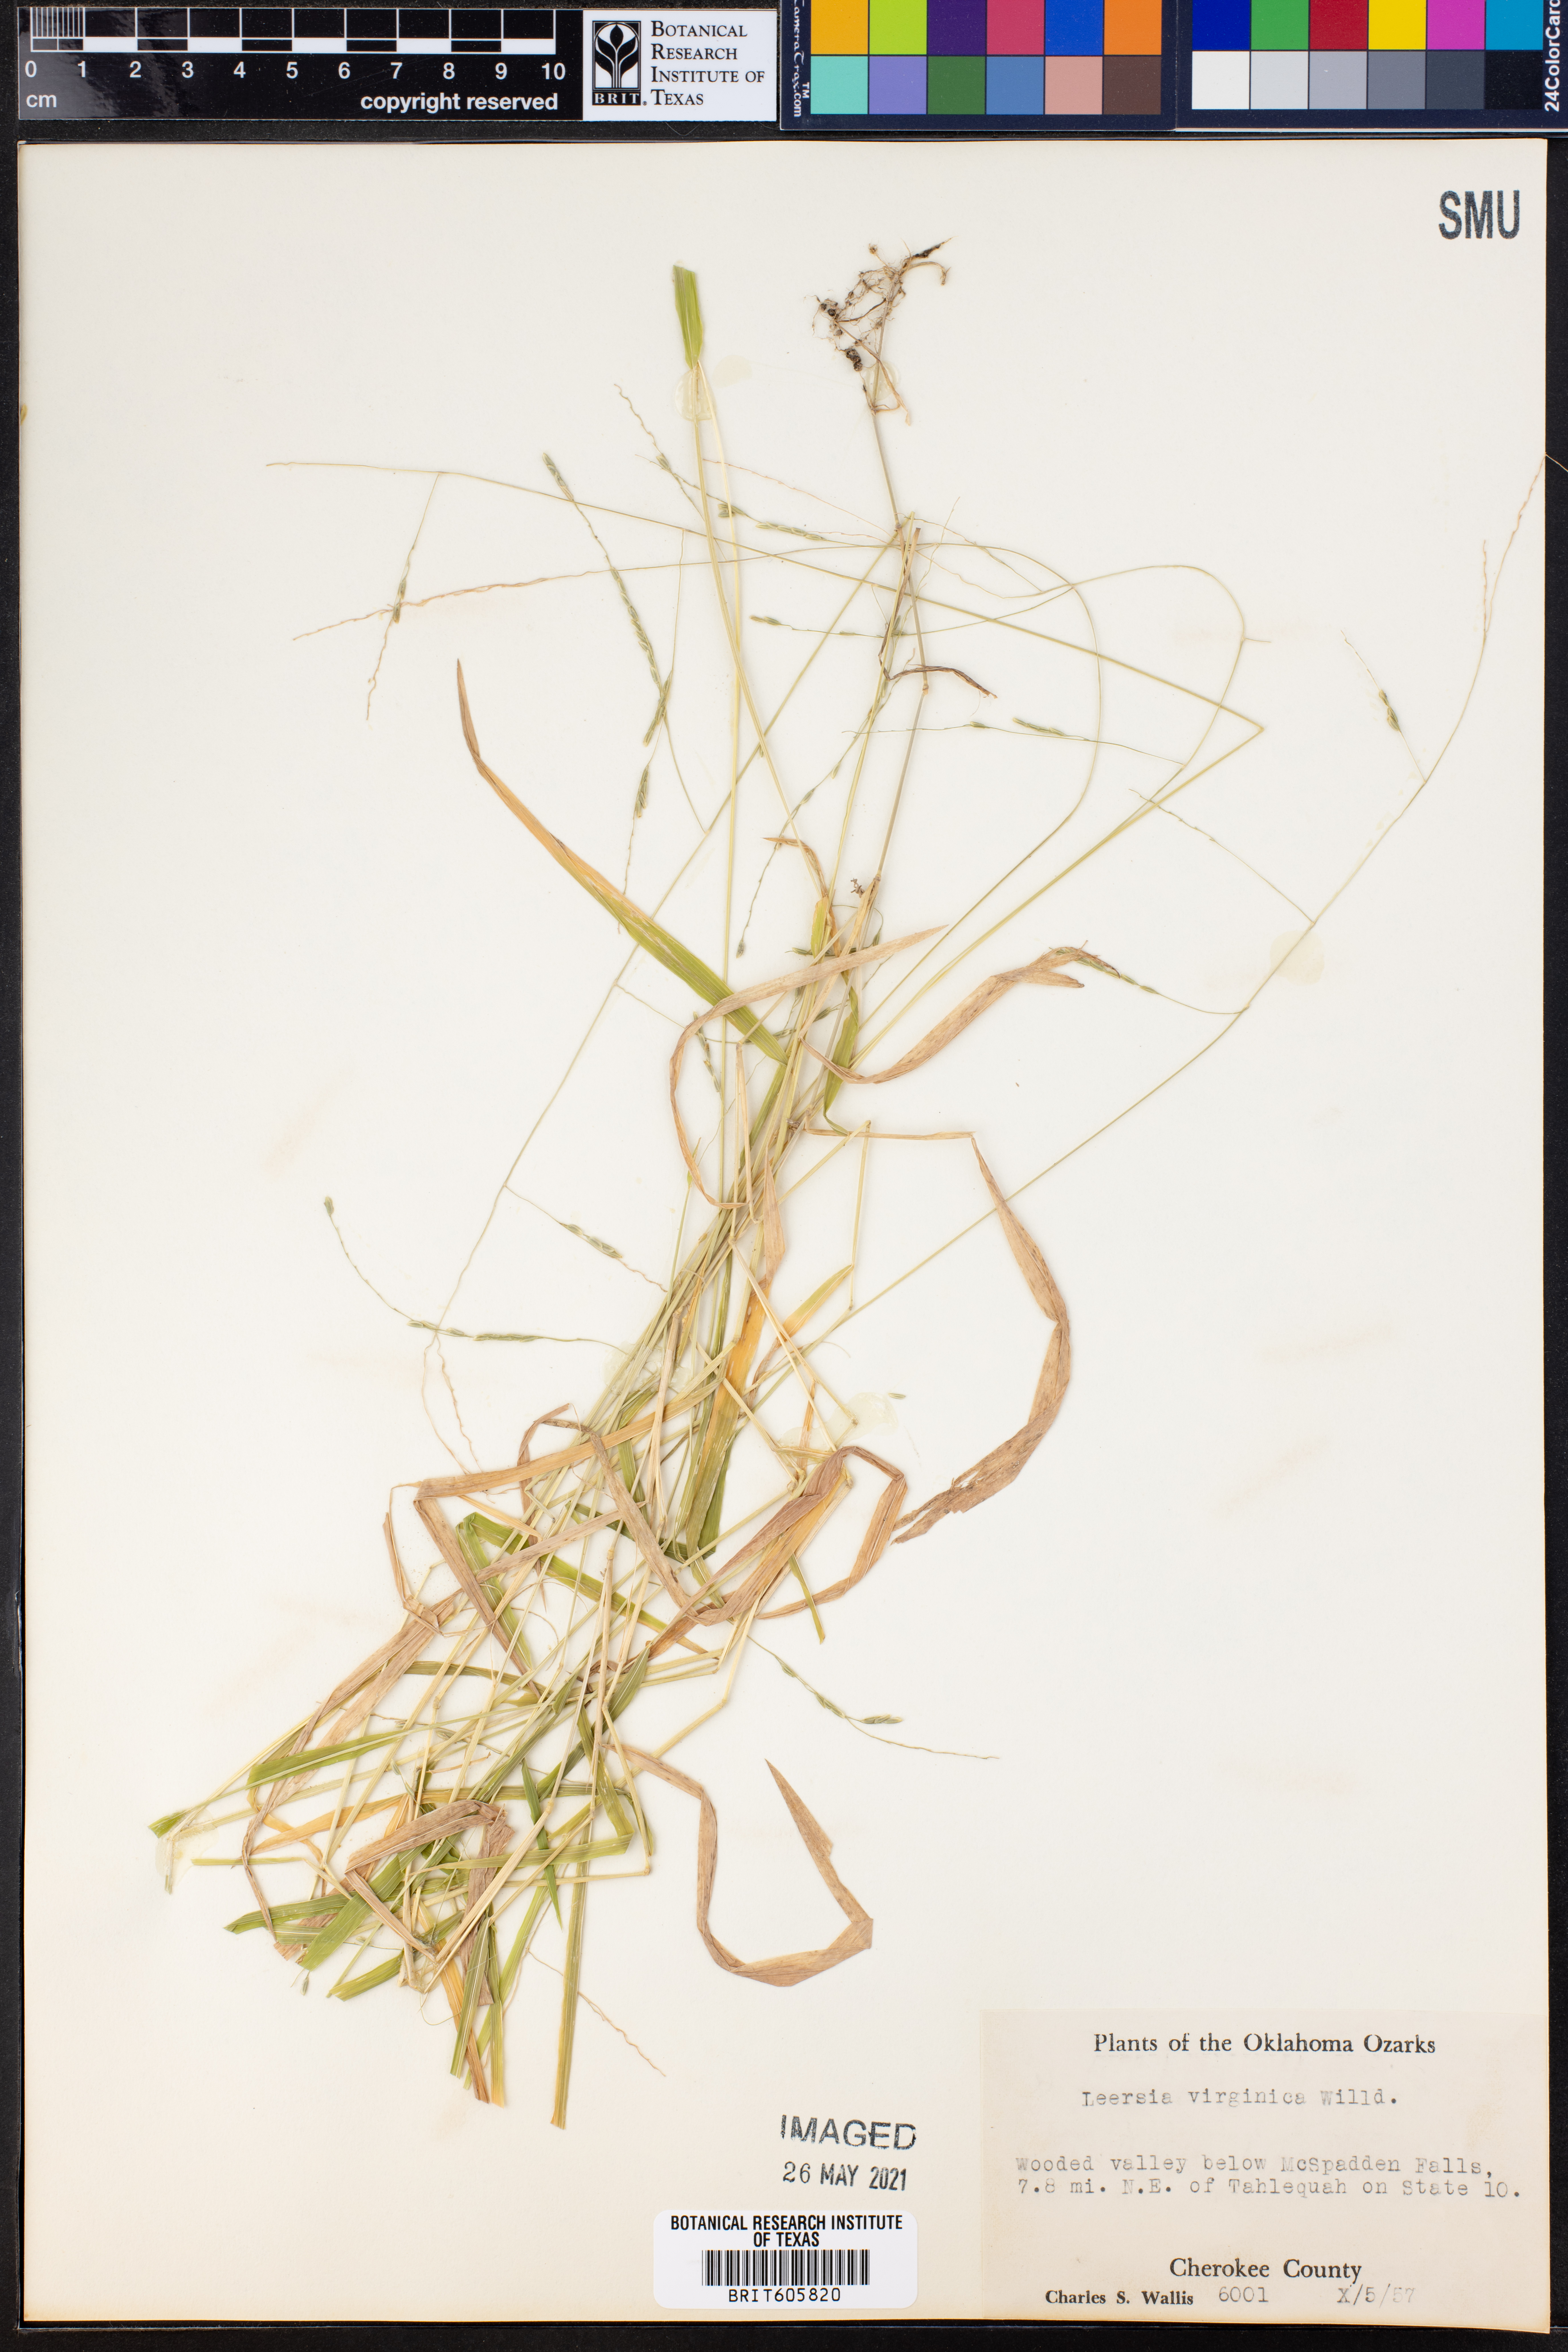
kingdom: Plantae
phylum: Tracheophyta
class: Liliopsida
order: Poales
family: Poaceae
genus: Leersia
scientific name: Leersia virginica
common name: White cutgrass
